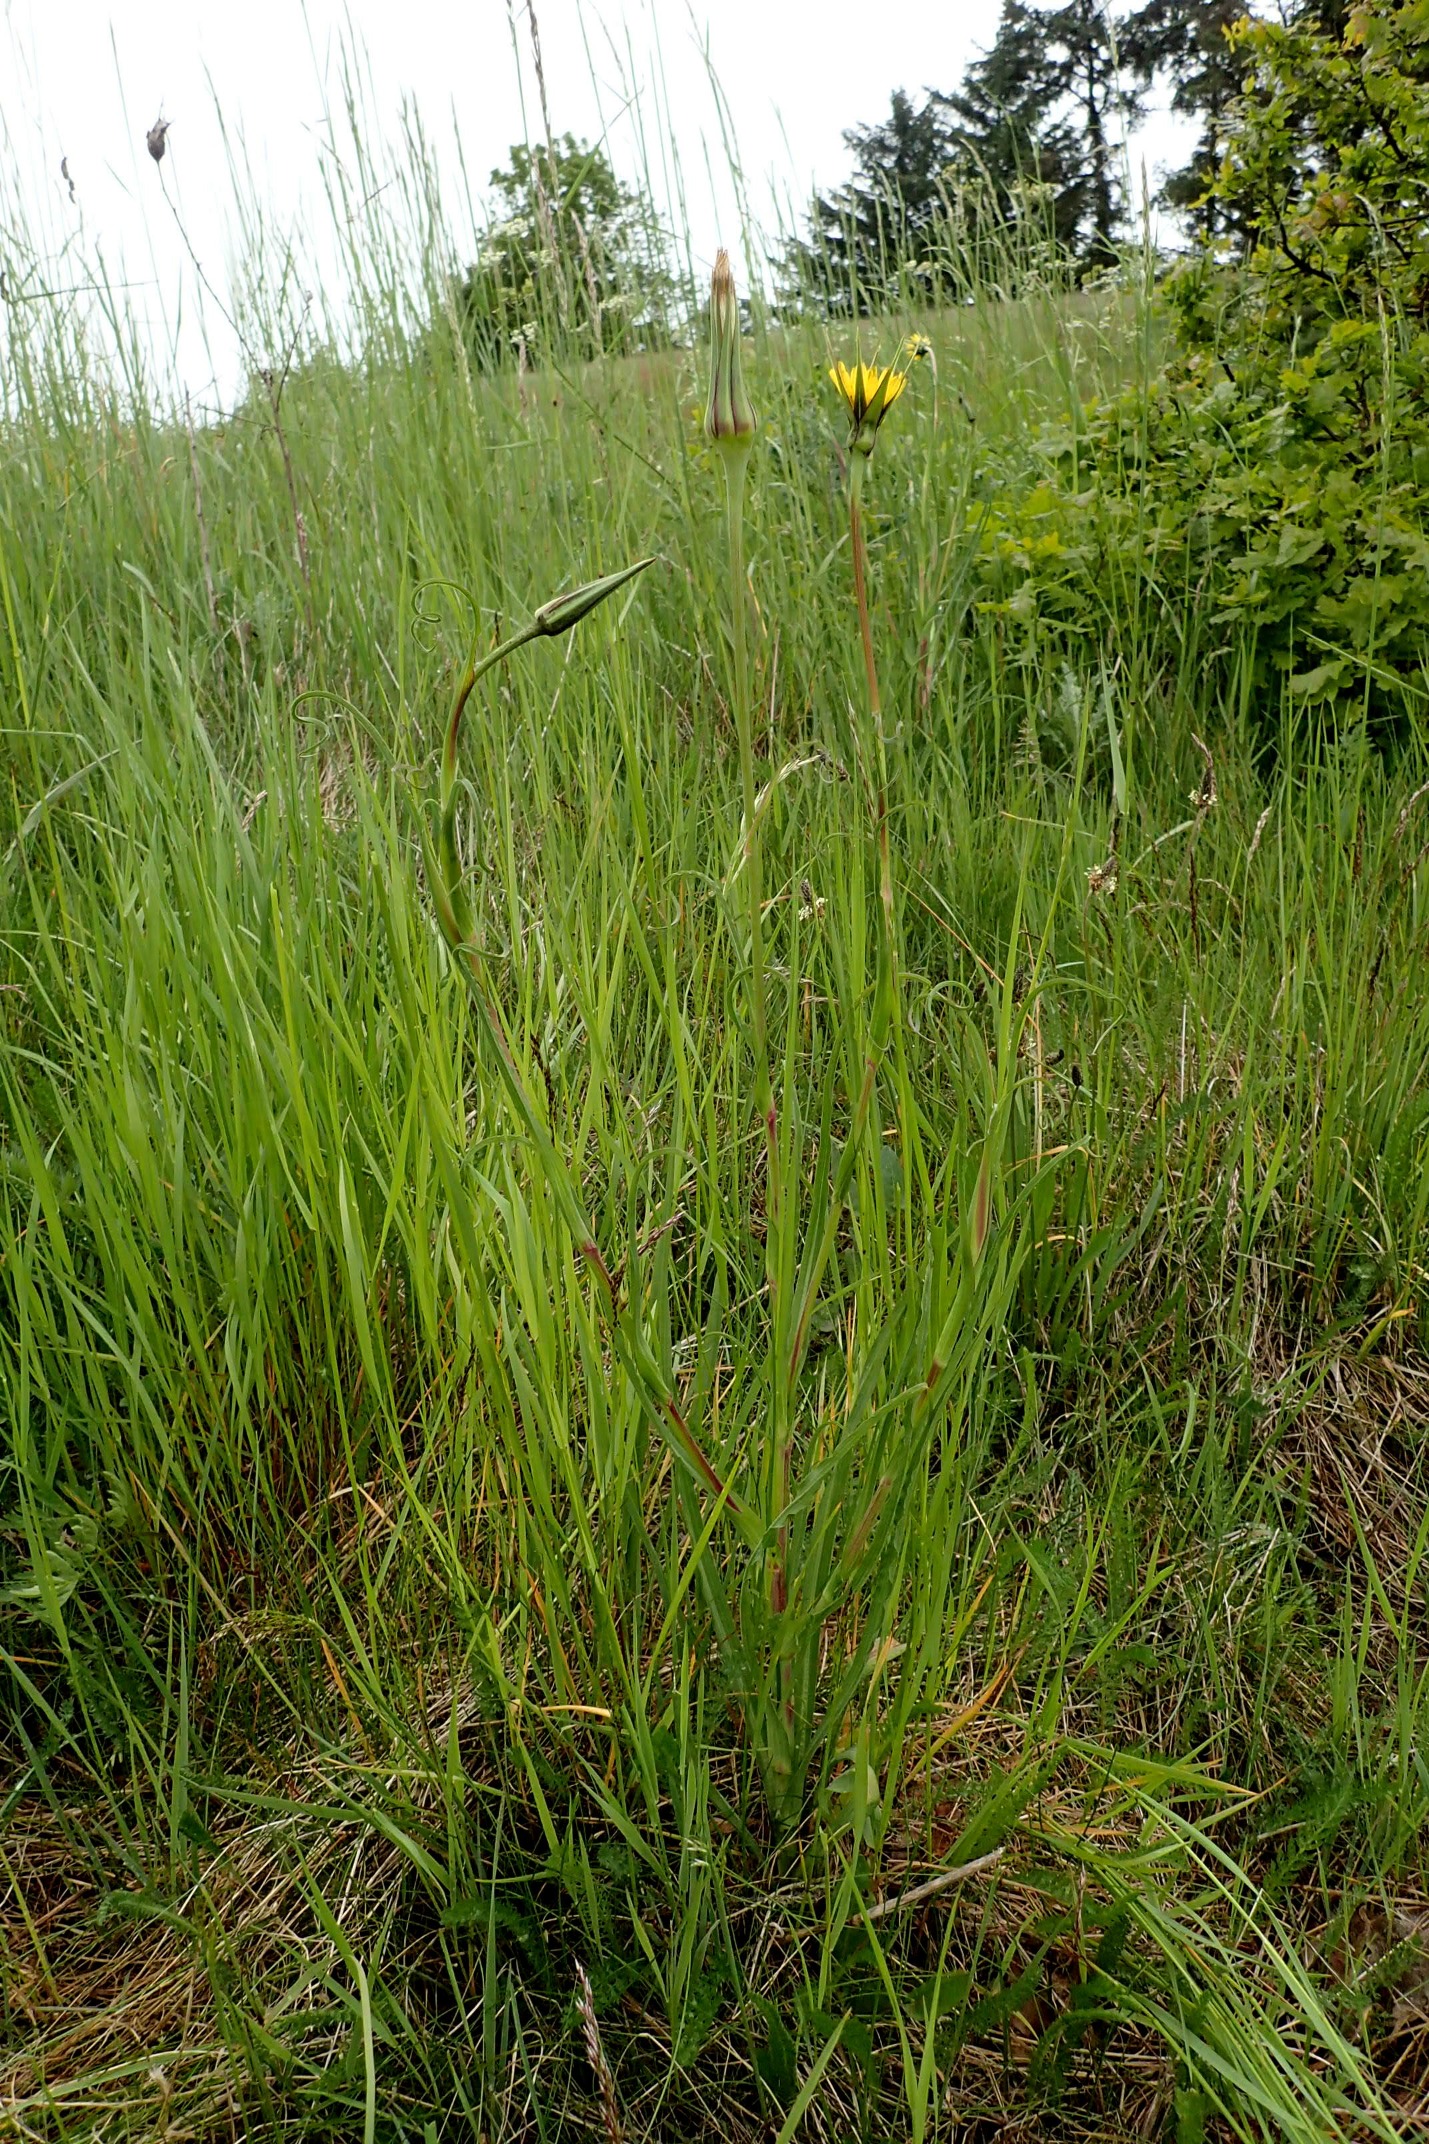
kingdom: Plantae
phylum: Tracheophyta
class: Magnoliopsida
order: Asterales
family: Asteraceae
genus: Tragopogon
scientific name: Tragopogon minor
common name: Småkronet gedeskæg
